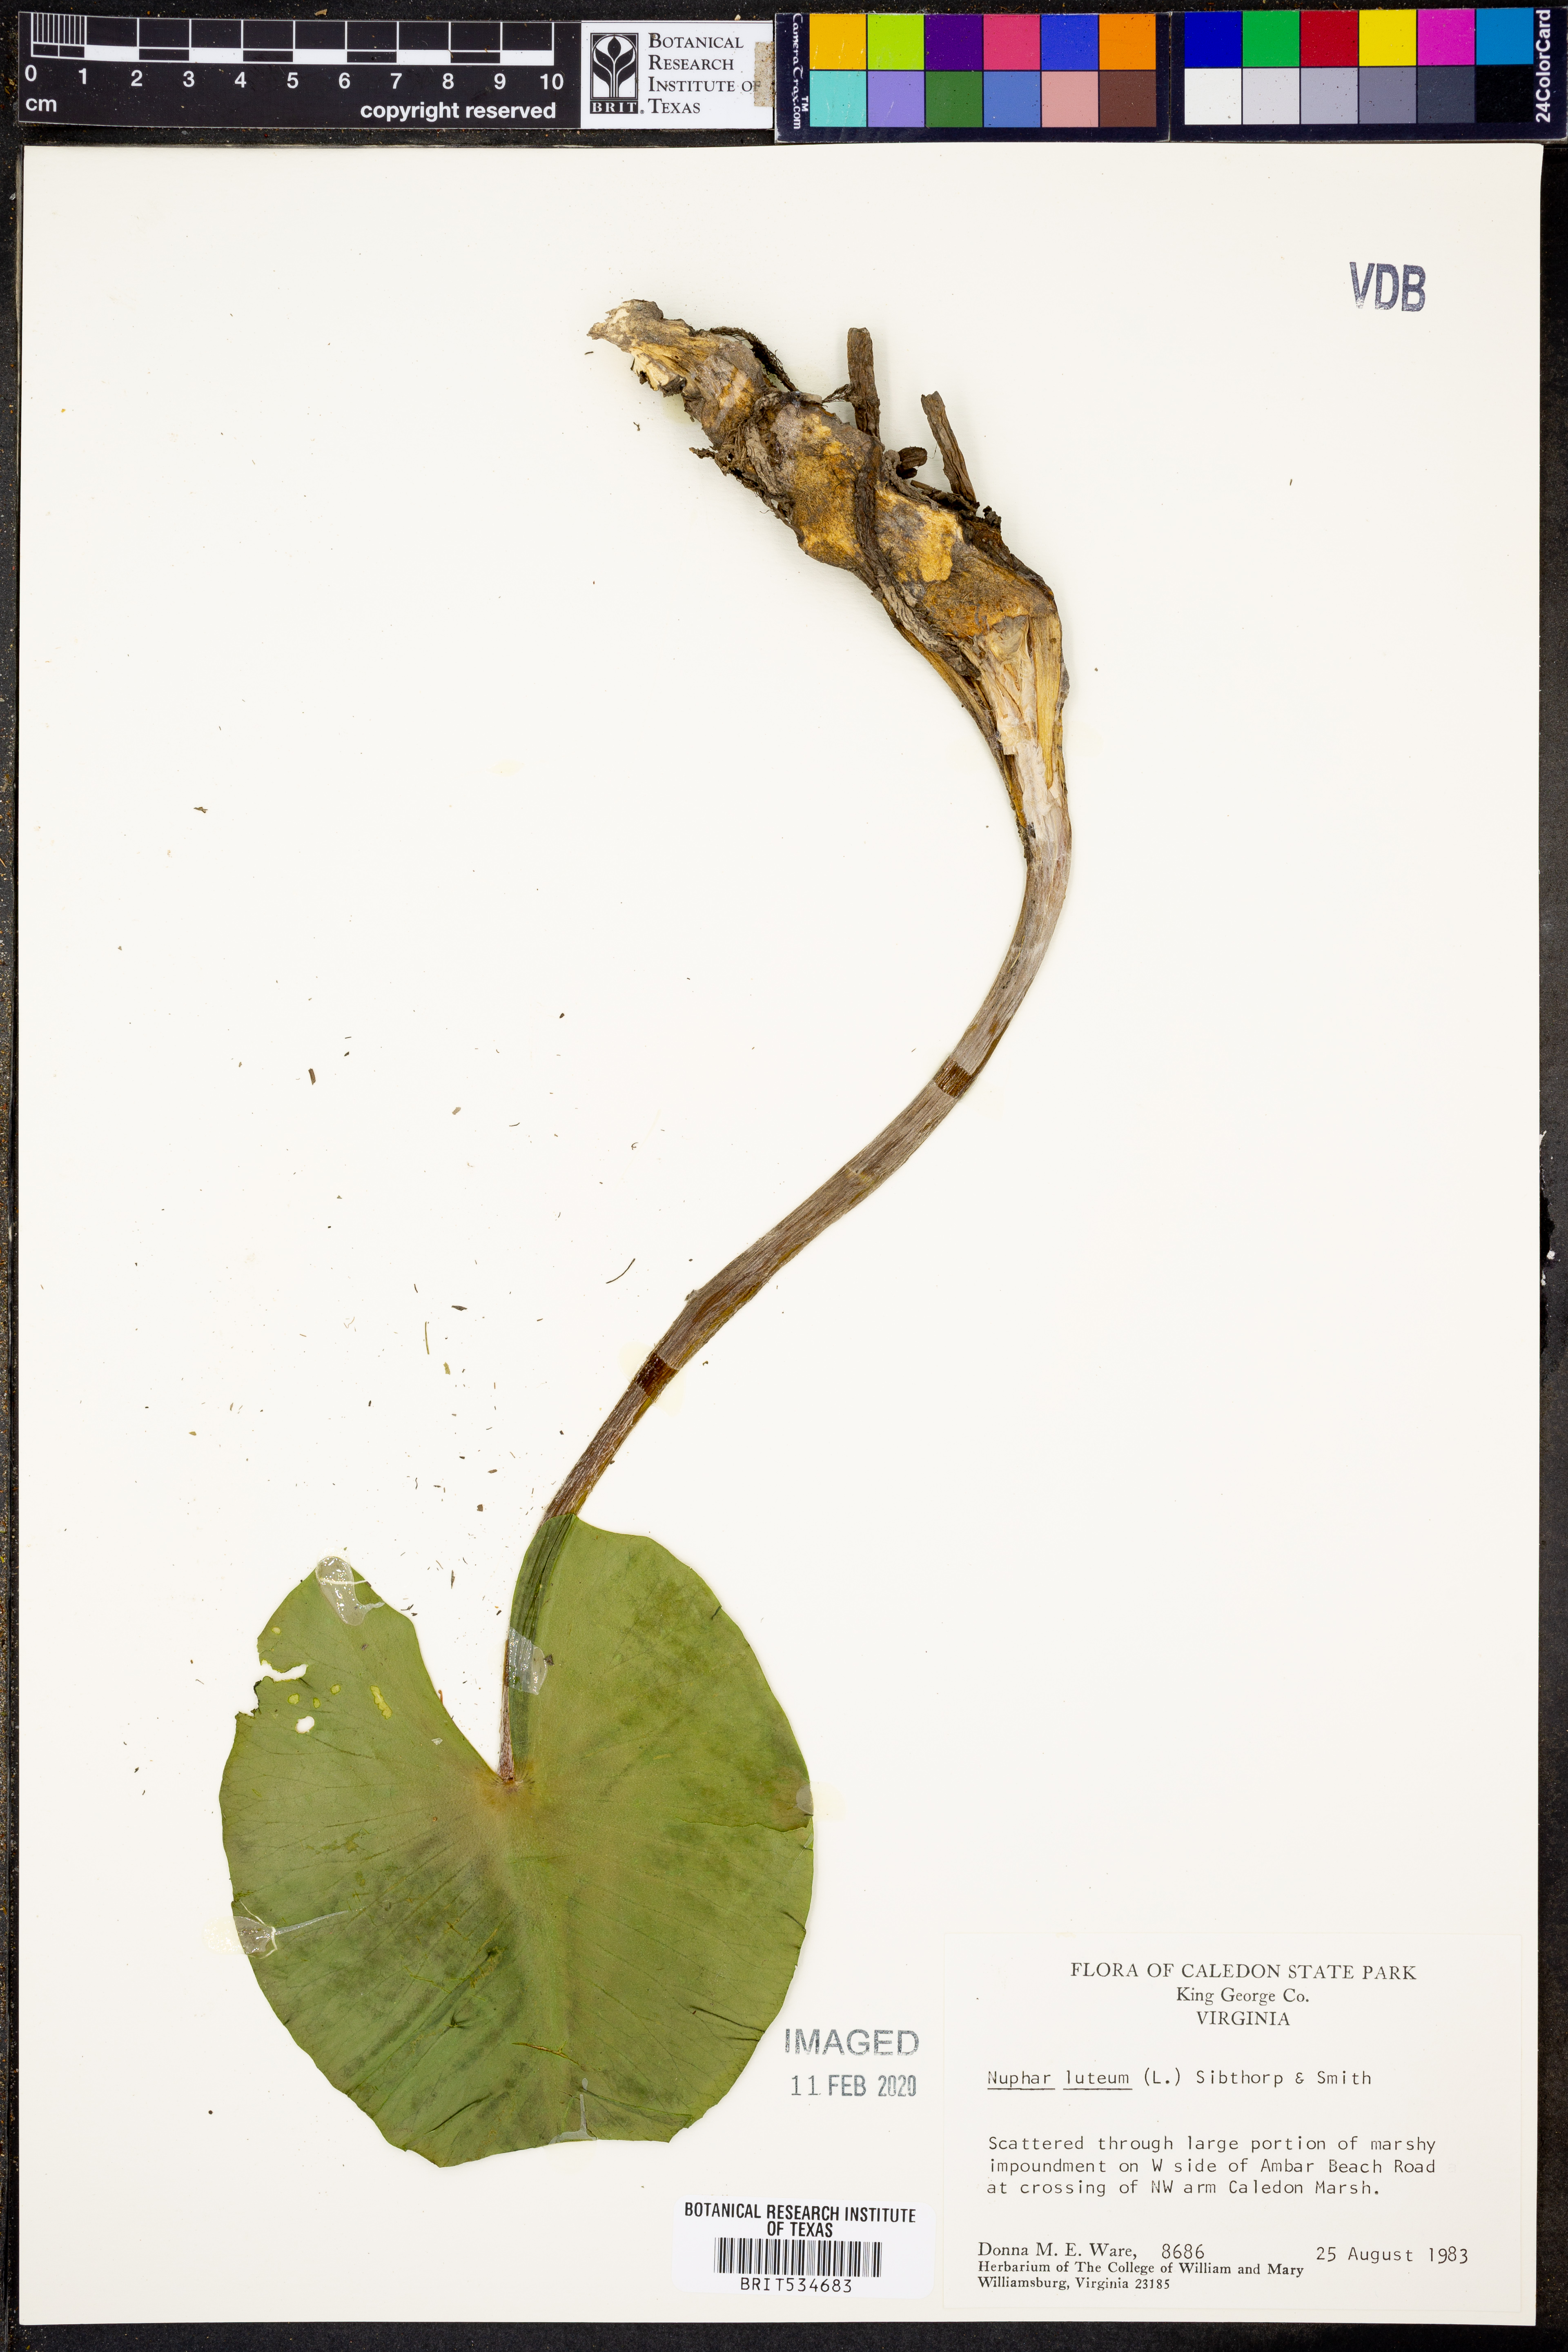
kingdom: Plantae
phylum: Tracheophyta
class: Magnoliopsida
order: Nymphaeales
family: Nymphaeaceae
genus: Nuphar
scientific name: Nuphar lutea
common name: Yellow water-lily
